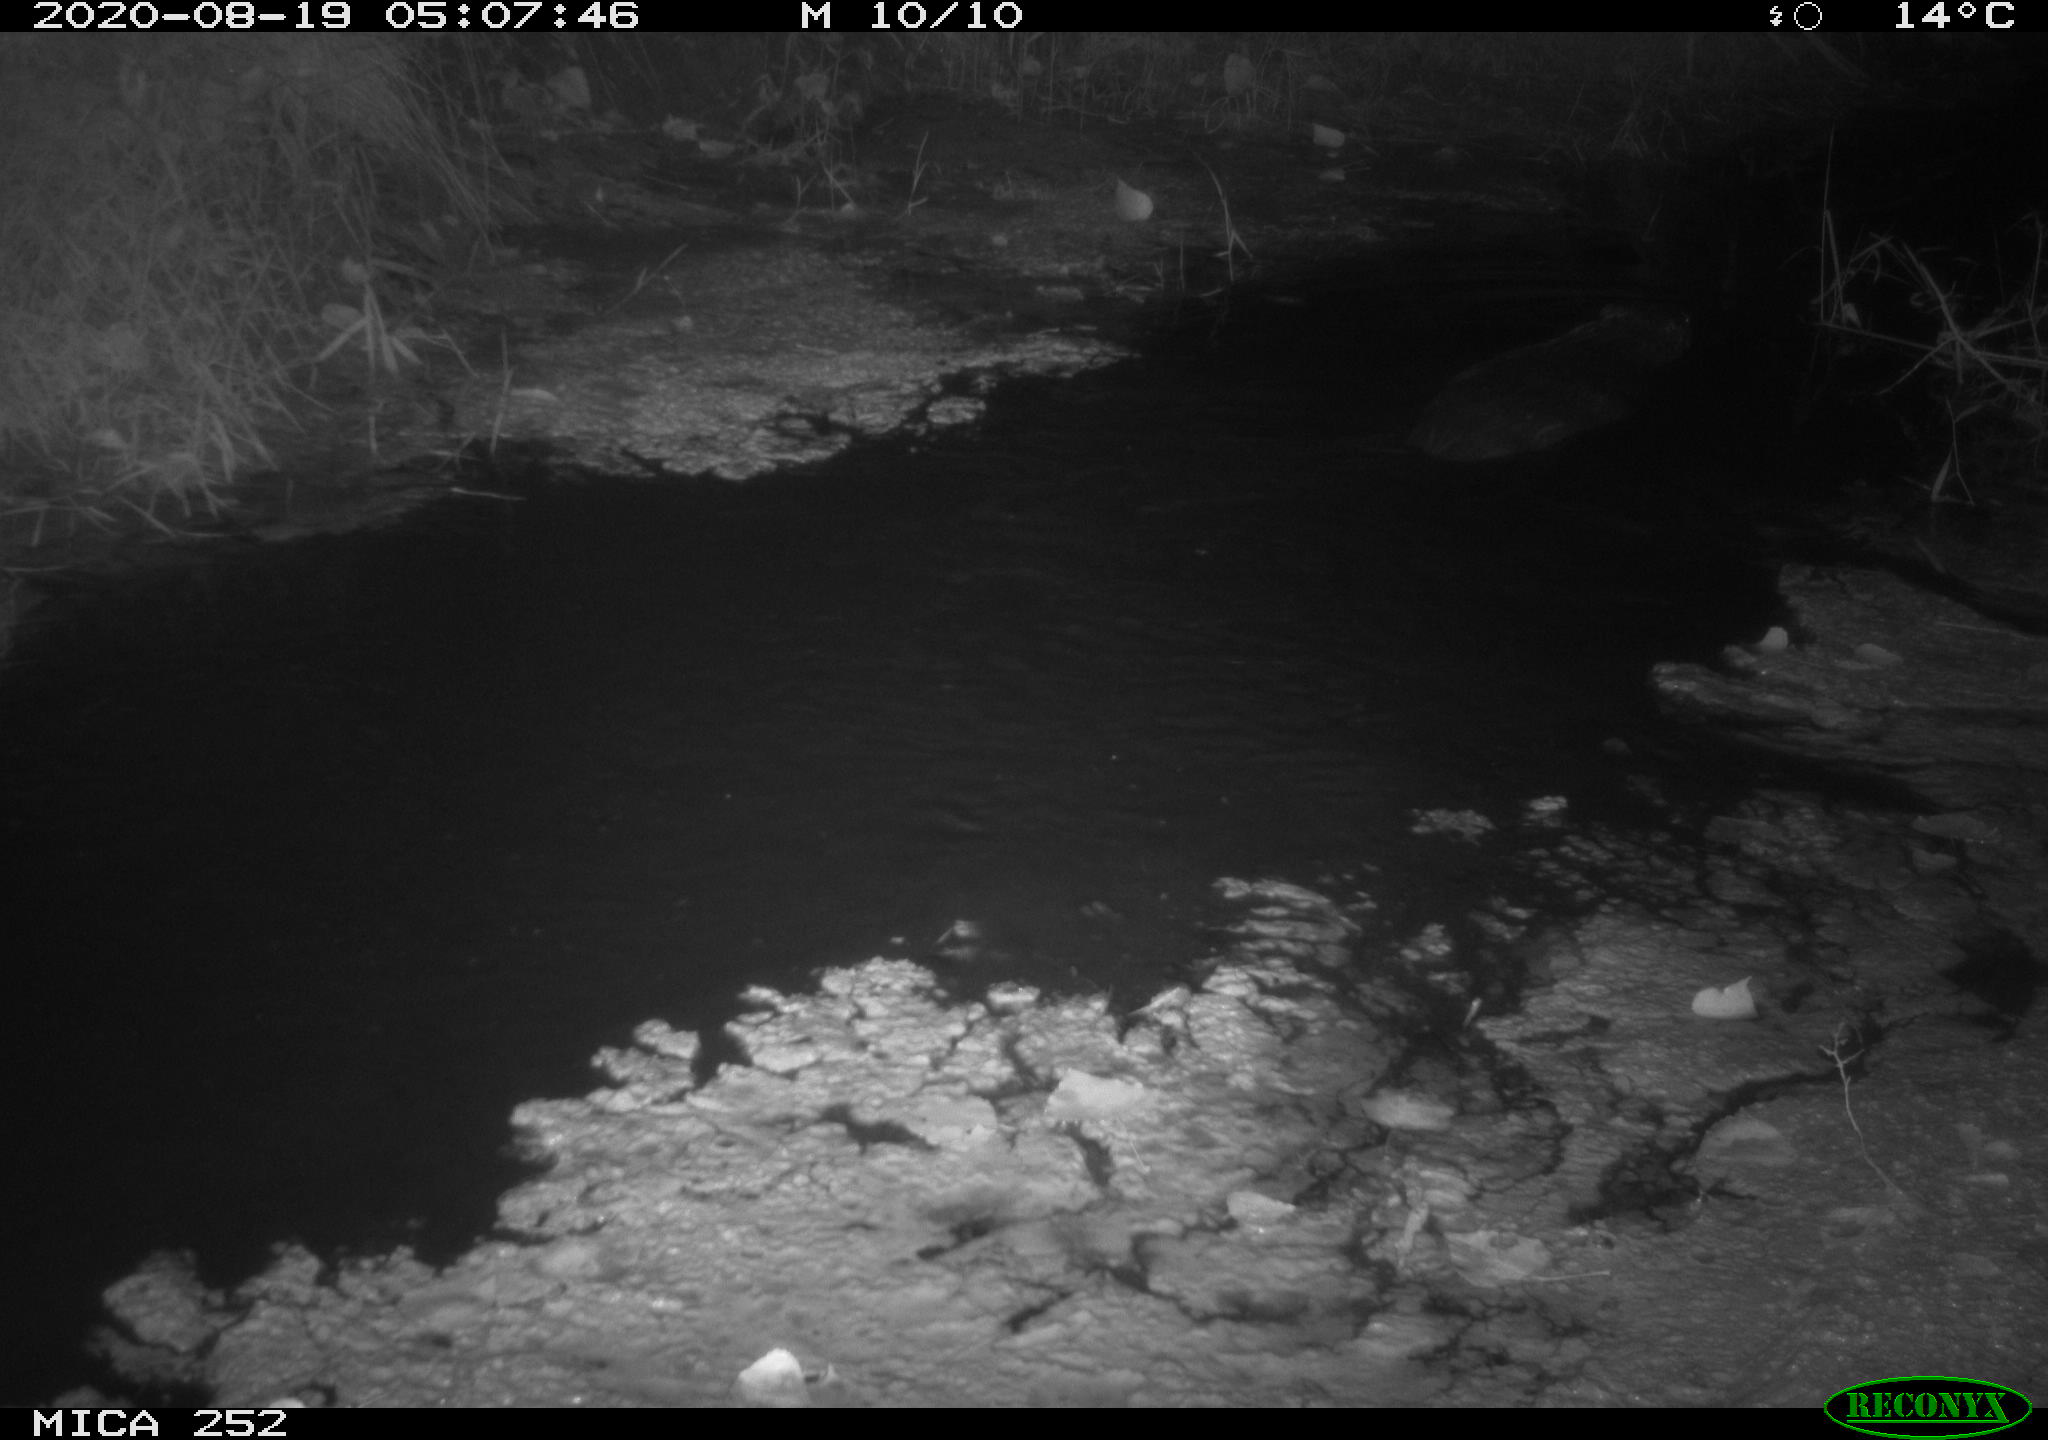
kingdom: Animalia
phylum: Chordata
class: Mammalia
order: Rodentia
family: Castoridae
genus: Castor
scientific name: Castor fiber
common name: Eurasian beaver
